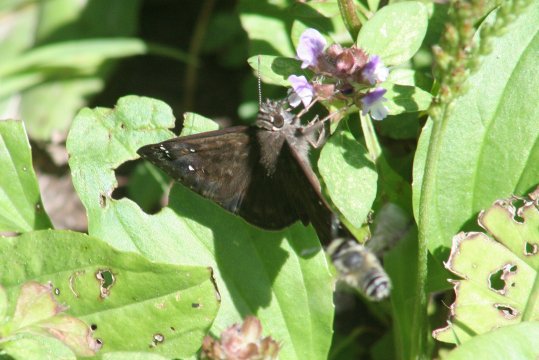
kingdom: Animalia
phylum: Arthropoda
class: Insecta
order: Lepidoptera
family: Hesperiidae
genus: Gesta
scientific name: Gesta
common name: Horace's Duskywing
